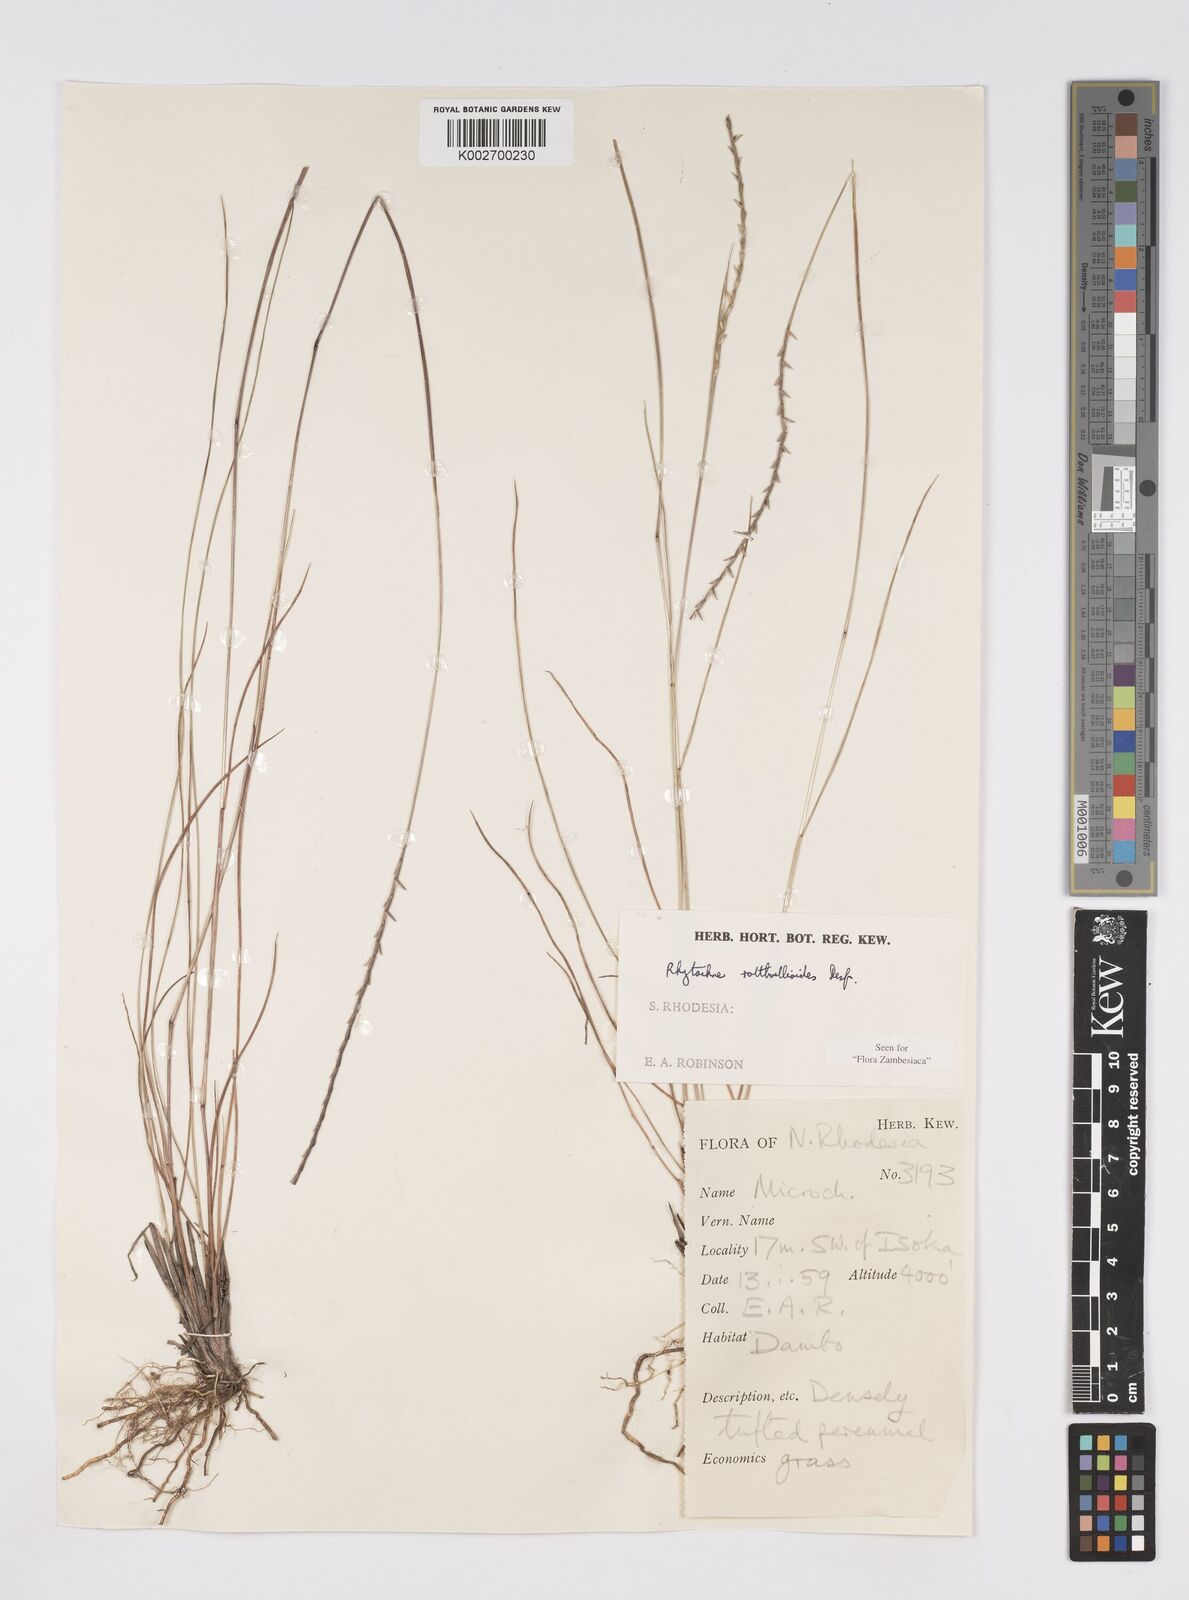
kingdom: Plantae
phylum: Tracheophyta
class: Liliopsida
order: Poales
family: Poaceae
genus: Rhytachne
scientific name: Rhytachne rottboellioides
